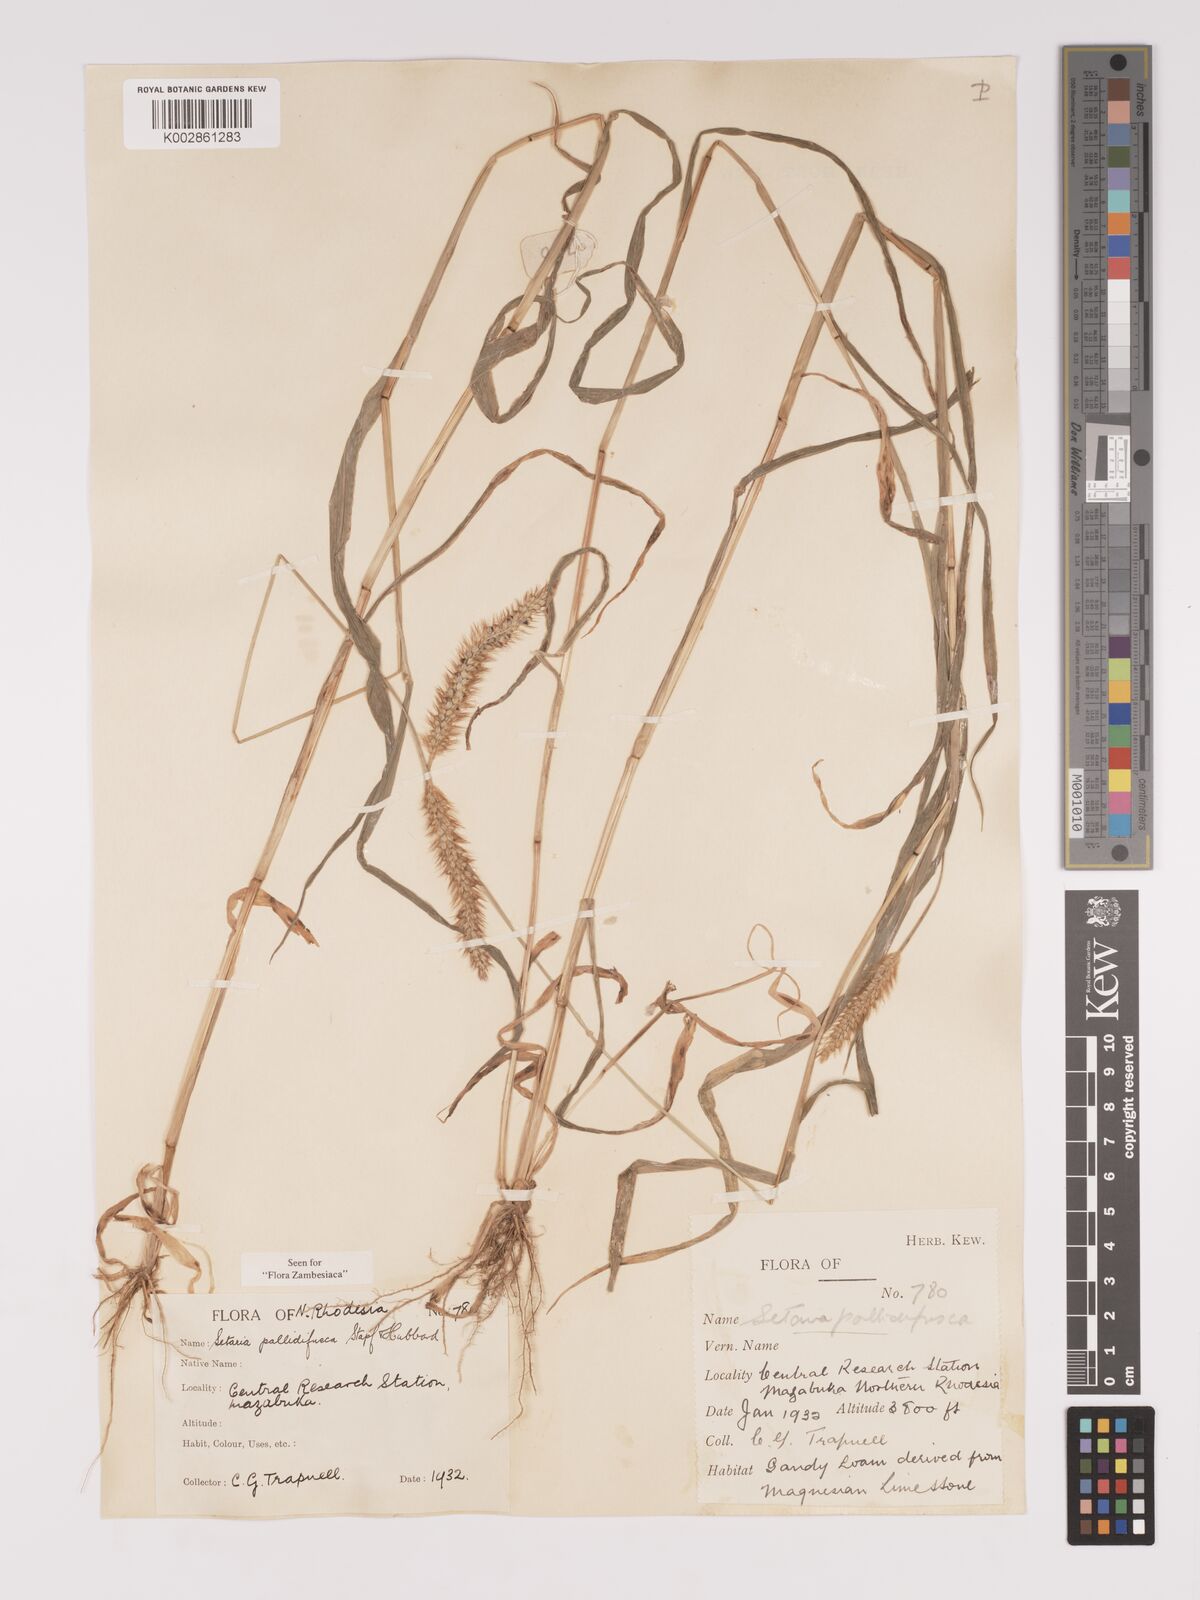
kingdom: Plantae
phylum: Tracheophyta
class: Liliopsida
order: Poales
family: Poaceae
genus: Setaria
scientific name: Setaria pumila
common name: Yellow bristle-grass
